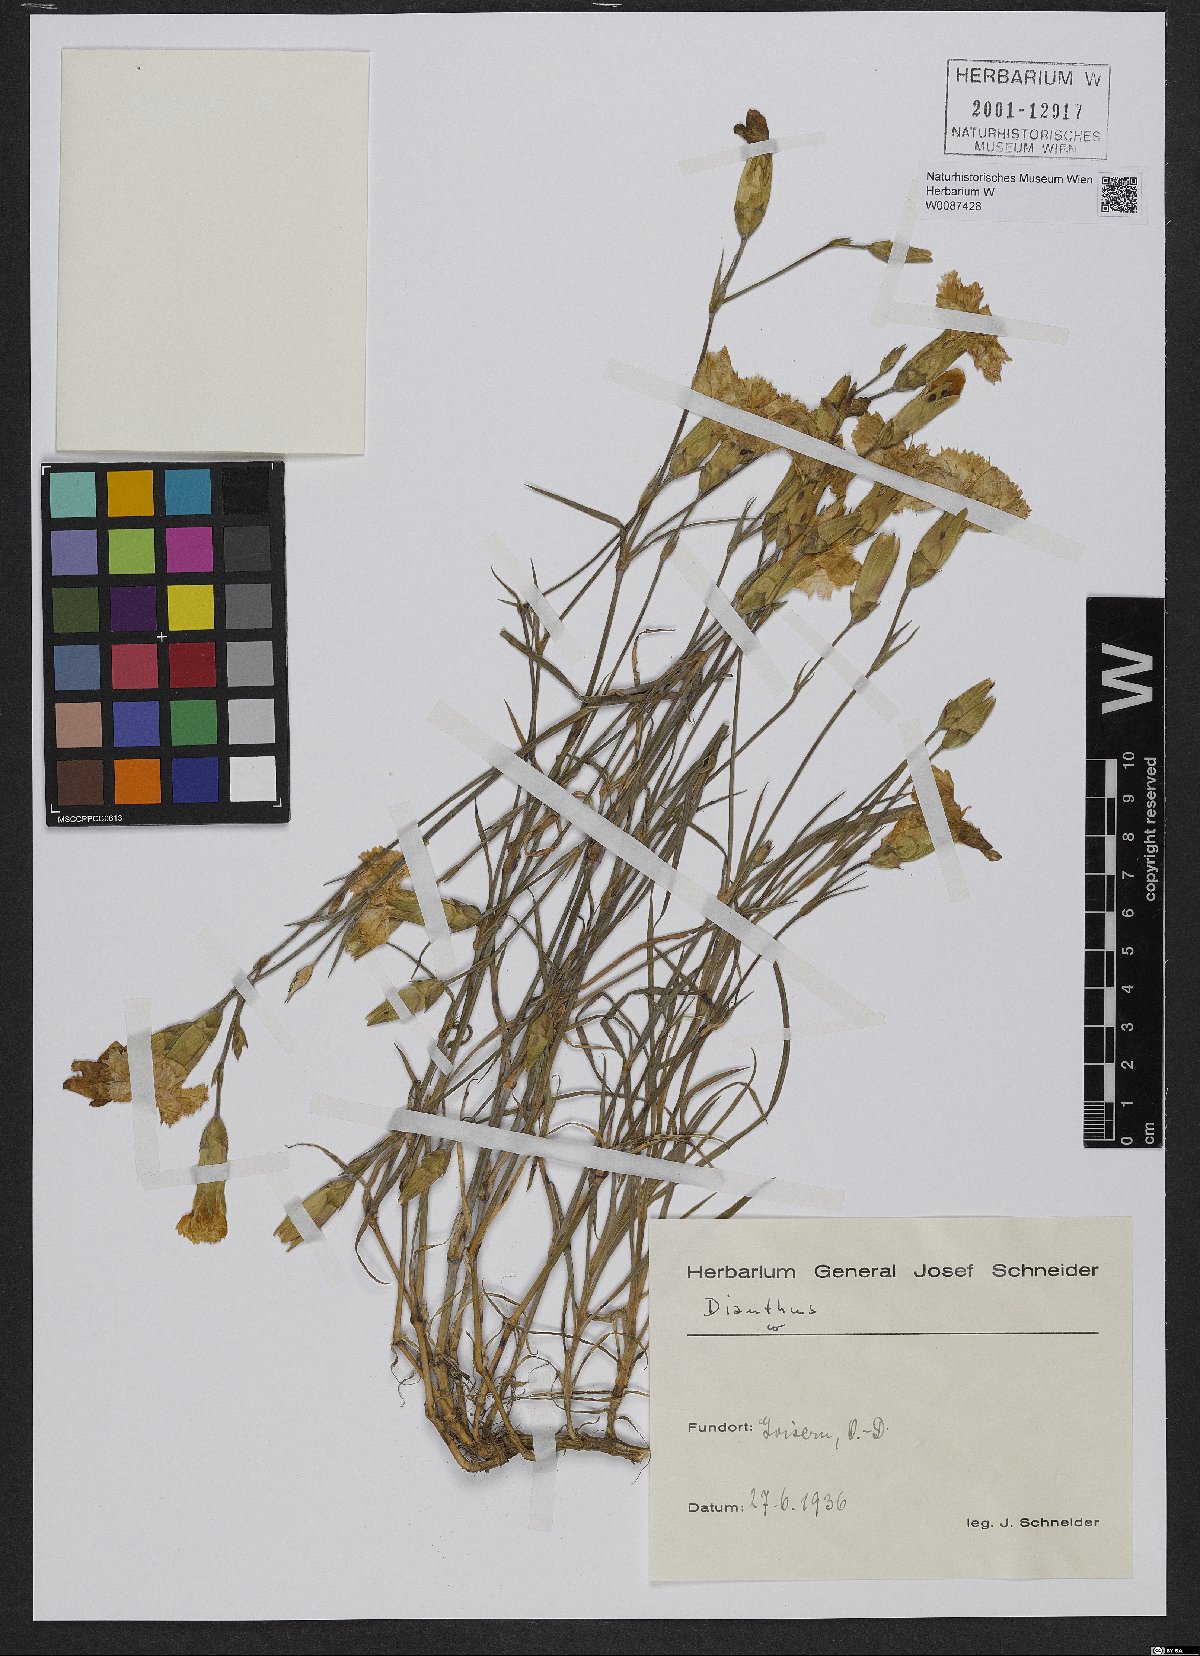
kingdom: Plantae
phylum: Tracheophyta
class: Magnoliopsida
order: Caryophyllales
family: Caryophyllaceae
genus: Dianthus
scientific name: Dianthus caryophyllus
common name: Clove pink
